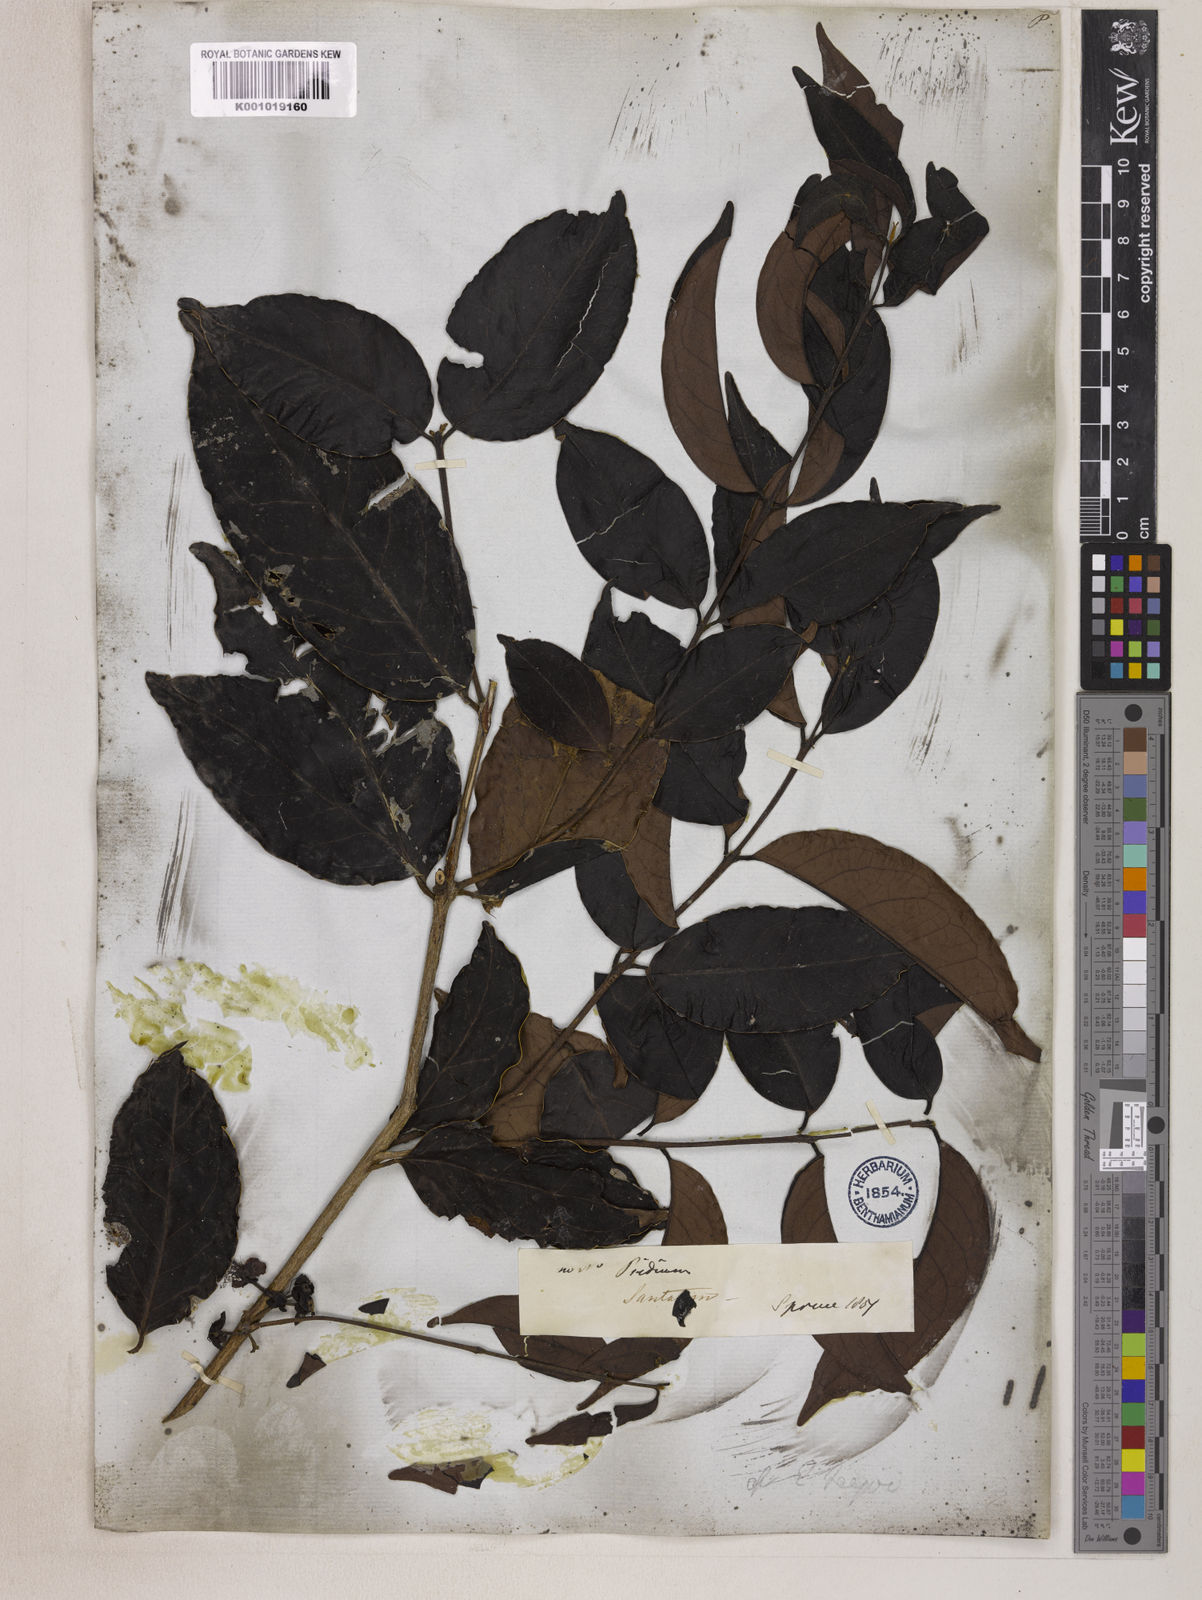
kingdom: Plantae
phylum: Tracheophyta
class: Magnoliopsida
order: Myrtales
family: Myrtaceae
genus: Eugenia
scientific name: Eugenia moschata
